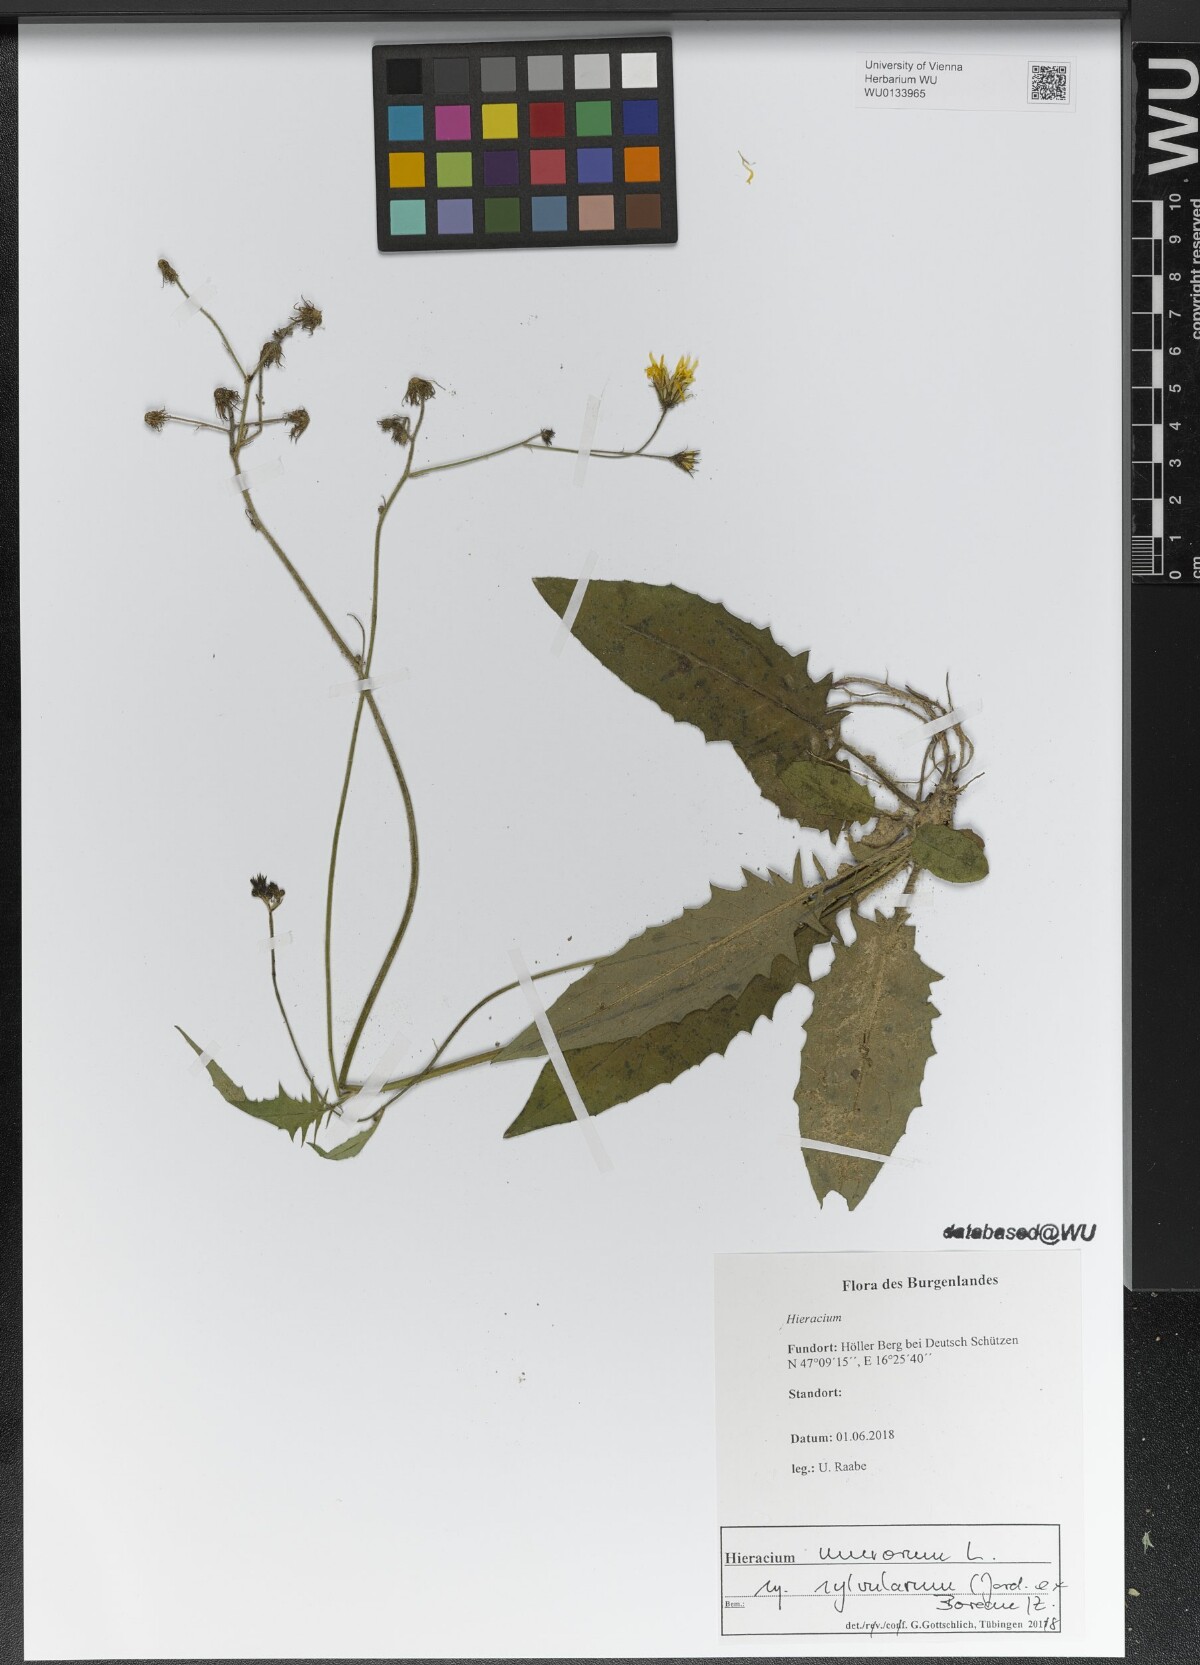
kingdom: Plantae
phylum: Tracheophyta
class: Magnoliopsida
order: Asterales
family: Asteraceae
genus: Hieracium
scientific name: Hieracium murorum
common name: Wall hawkweed
